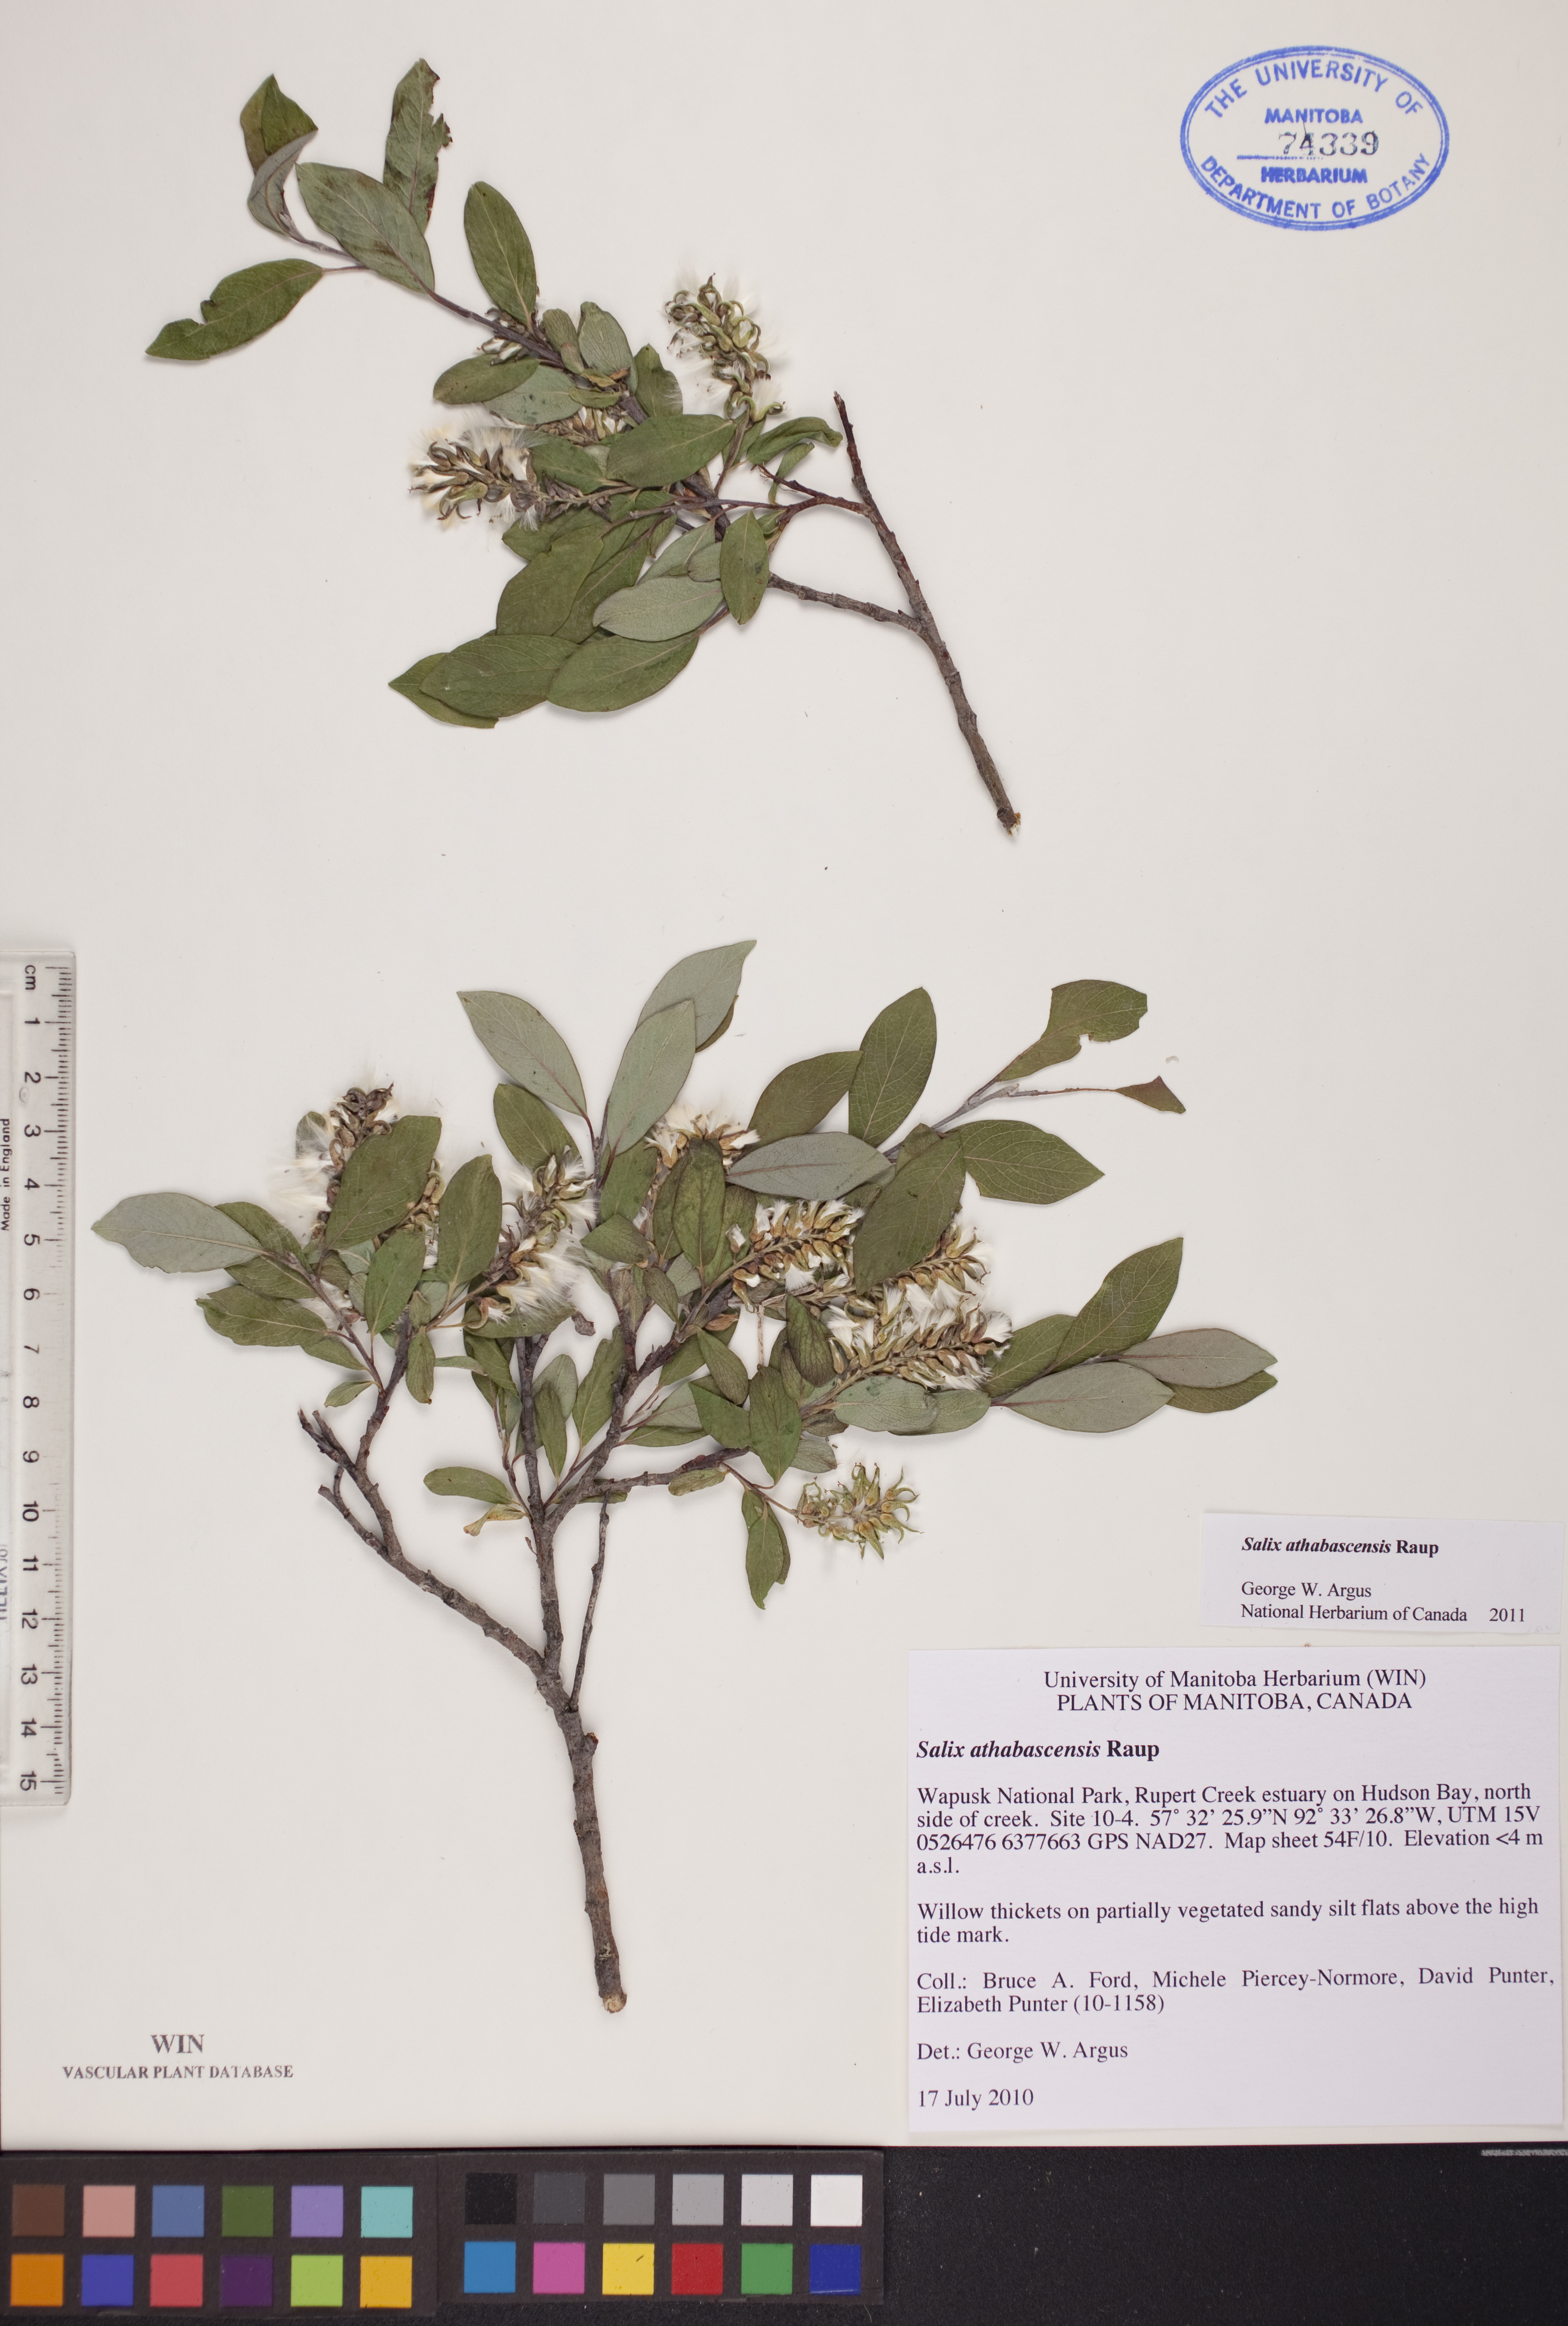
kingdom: Plantae
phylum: Tracheophyta
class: Magnoliopsida
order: Malpighiales
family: Salicaceae
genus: Salix
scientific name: Salix athabascensis
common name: Athabasca willow
